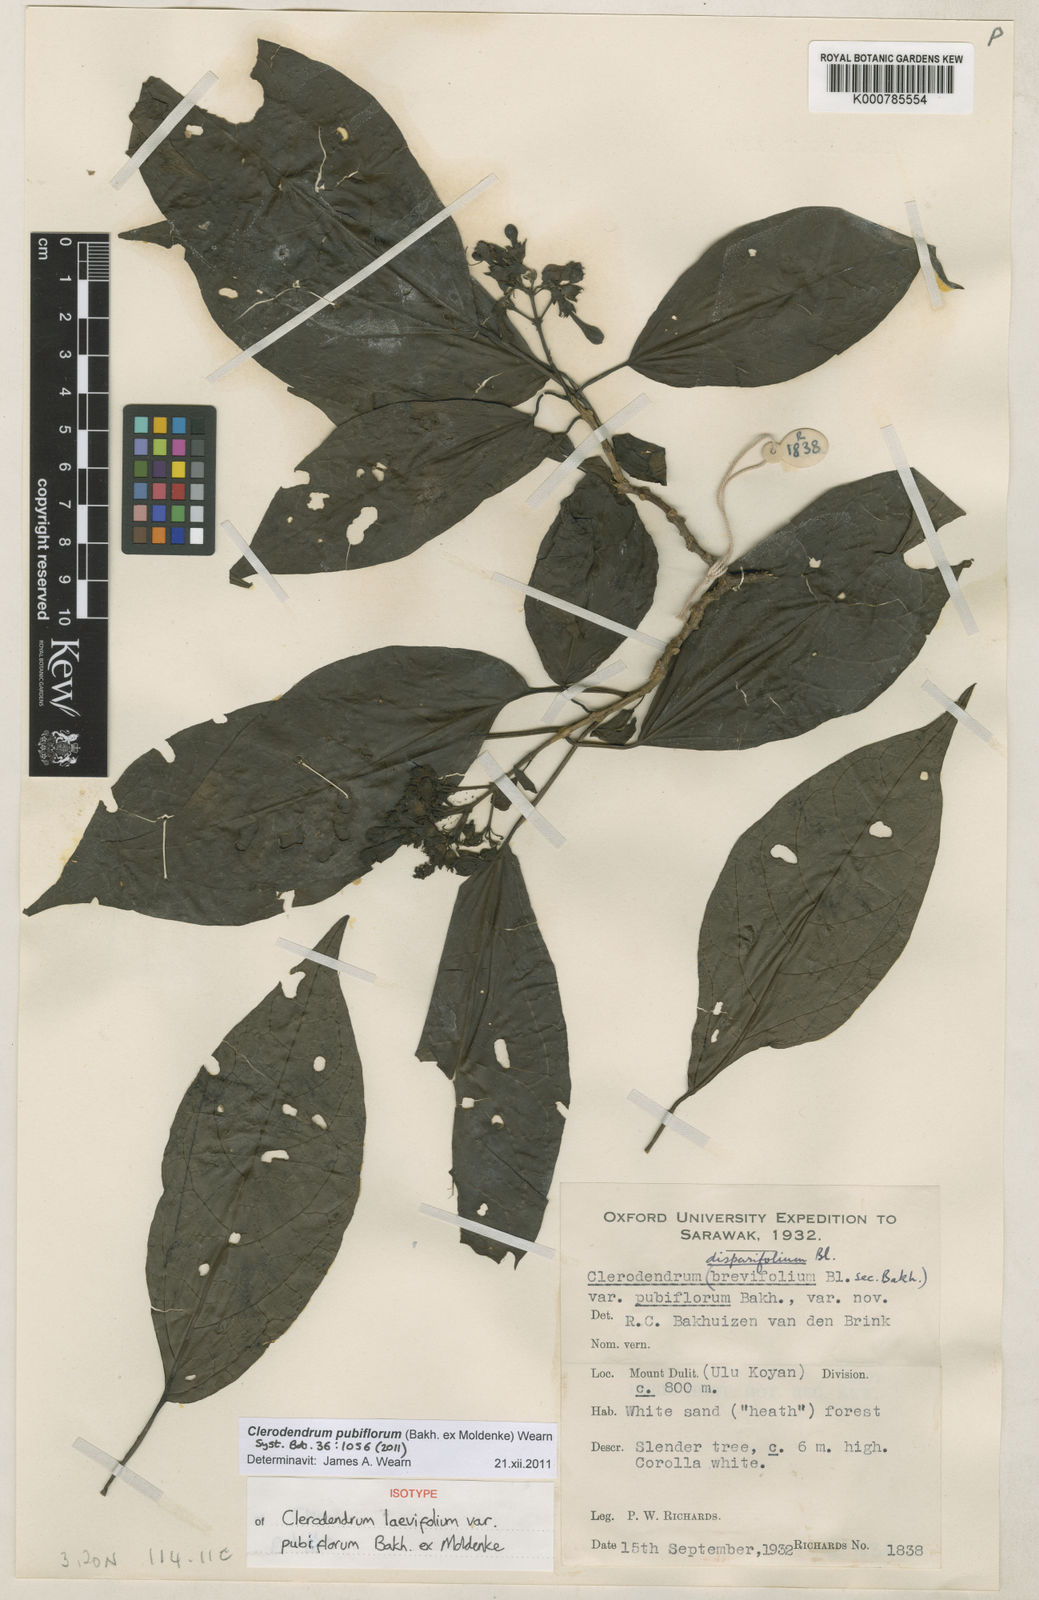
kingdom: Plantae
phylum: Tracheophyta
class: Magnoliopsida
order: Lamiales
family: Lamiaceae
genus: Clerodendrum
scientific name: Clerodendrum
